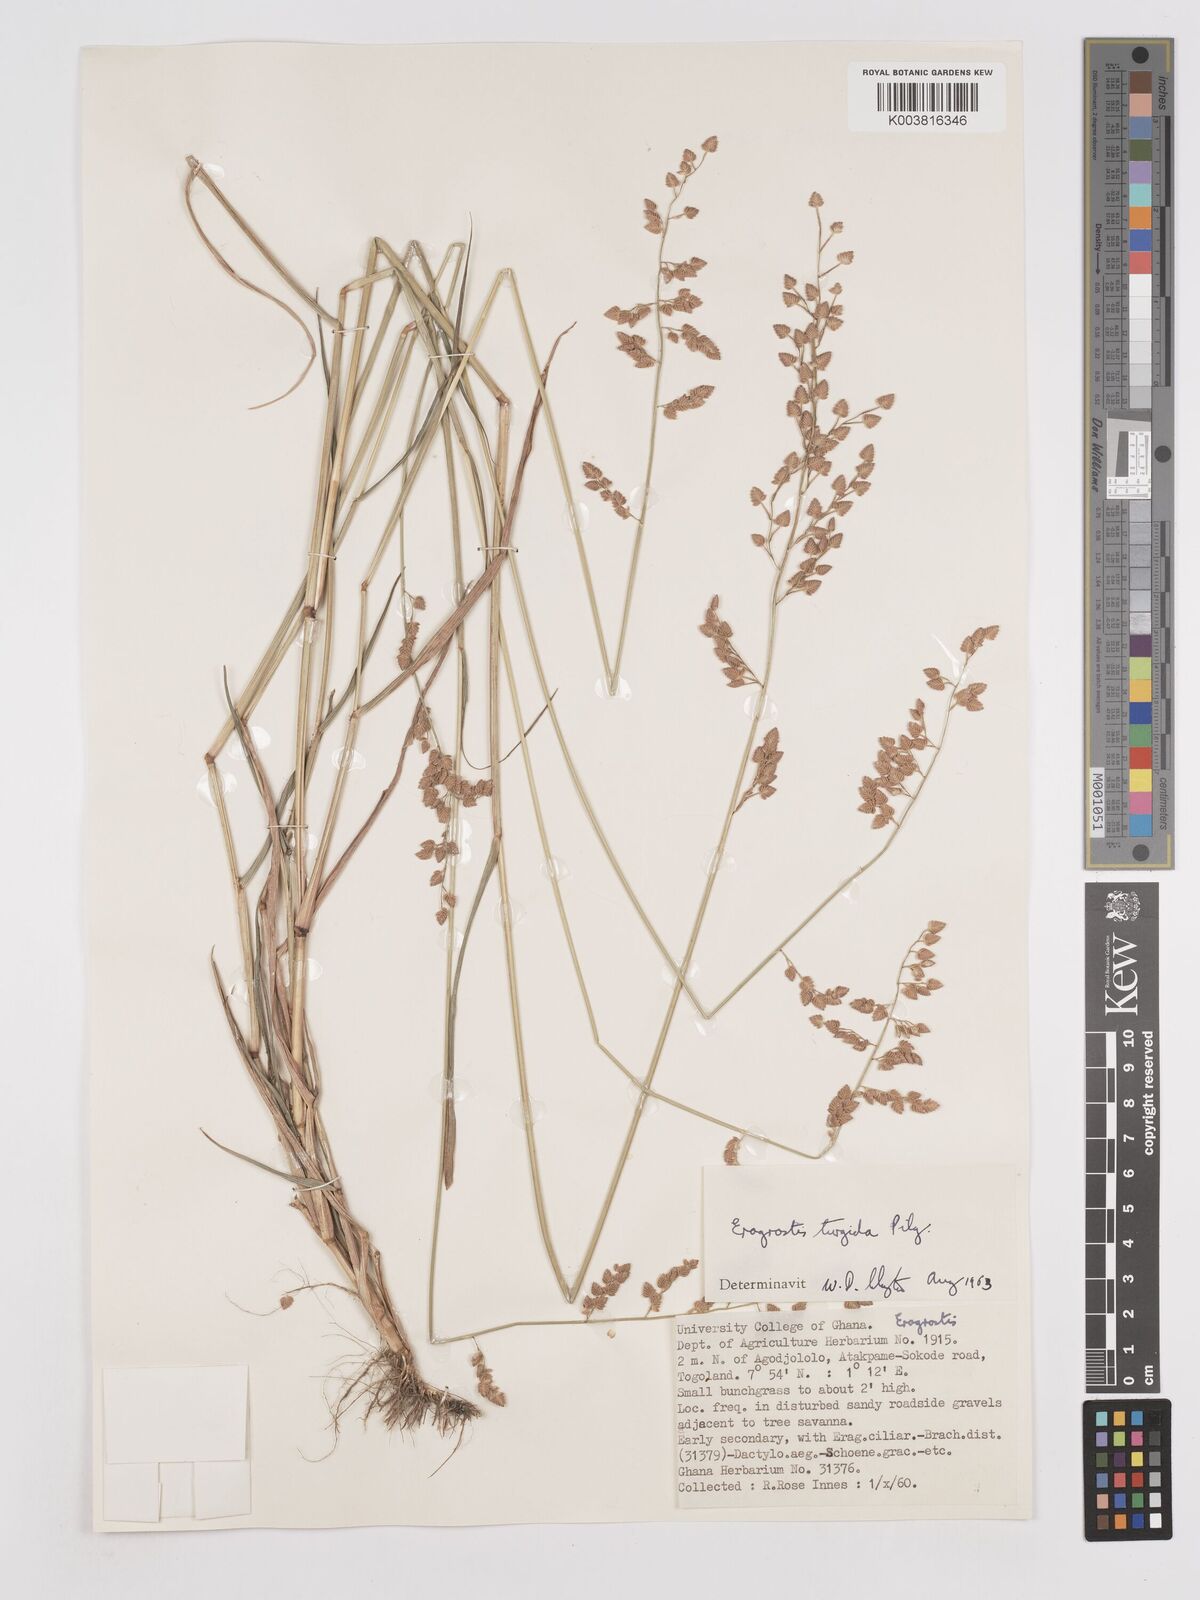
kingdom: Plantae
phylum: Tracheophyta
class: Liliopsida
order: Poales
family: Poaceae
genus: Eragrostis
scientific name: Eragrostis turgida
